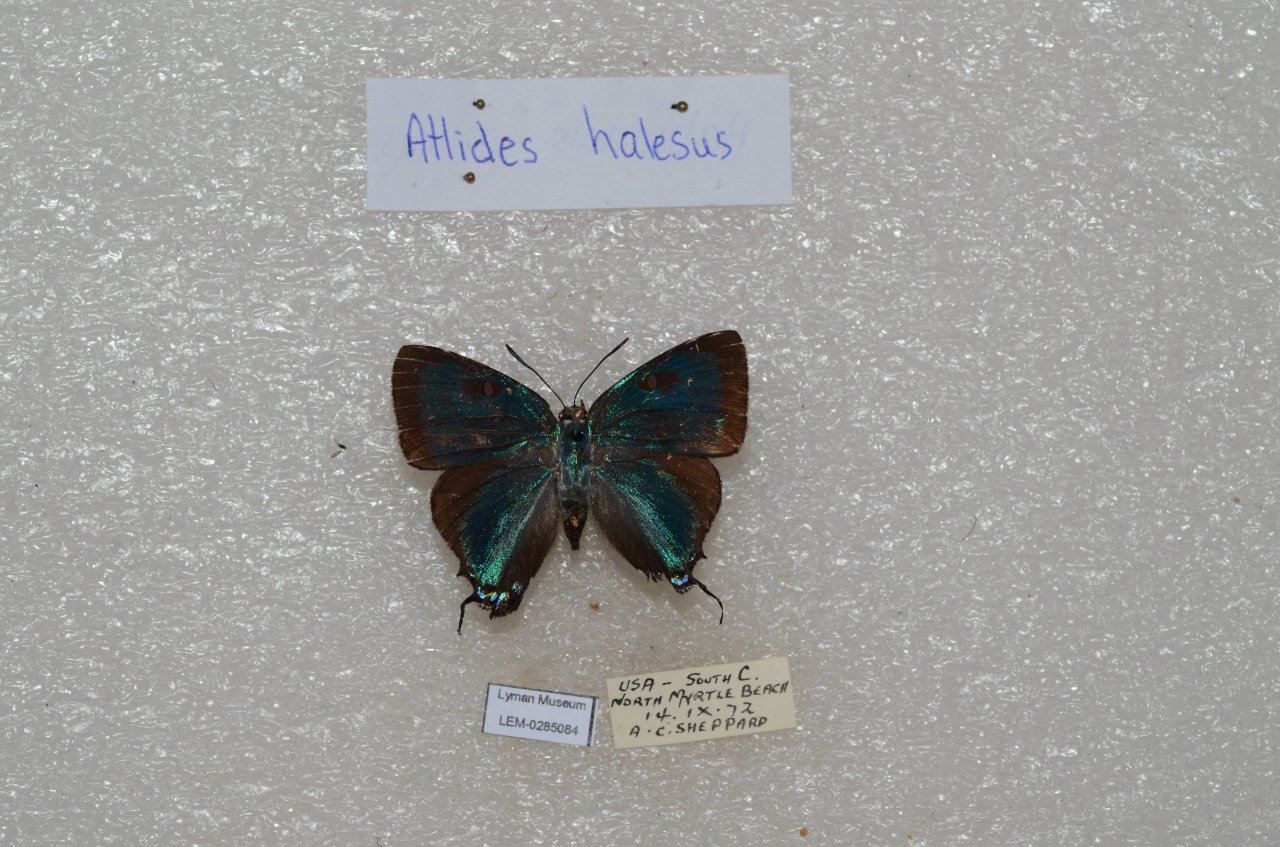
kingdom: Animalia
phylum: Arthropoda
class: Insecta
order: Lepidoptera
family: Lycaenidae
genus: Atlides
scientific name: Atlides halesus
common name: Great Purple Hairstreak
